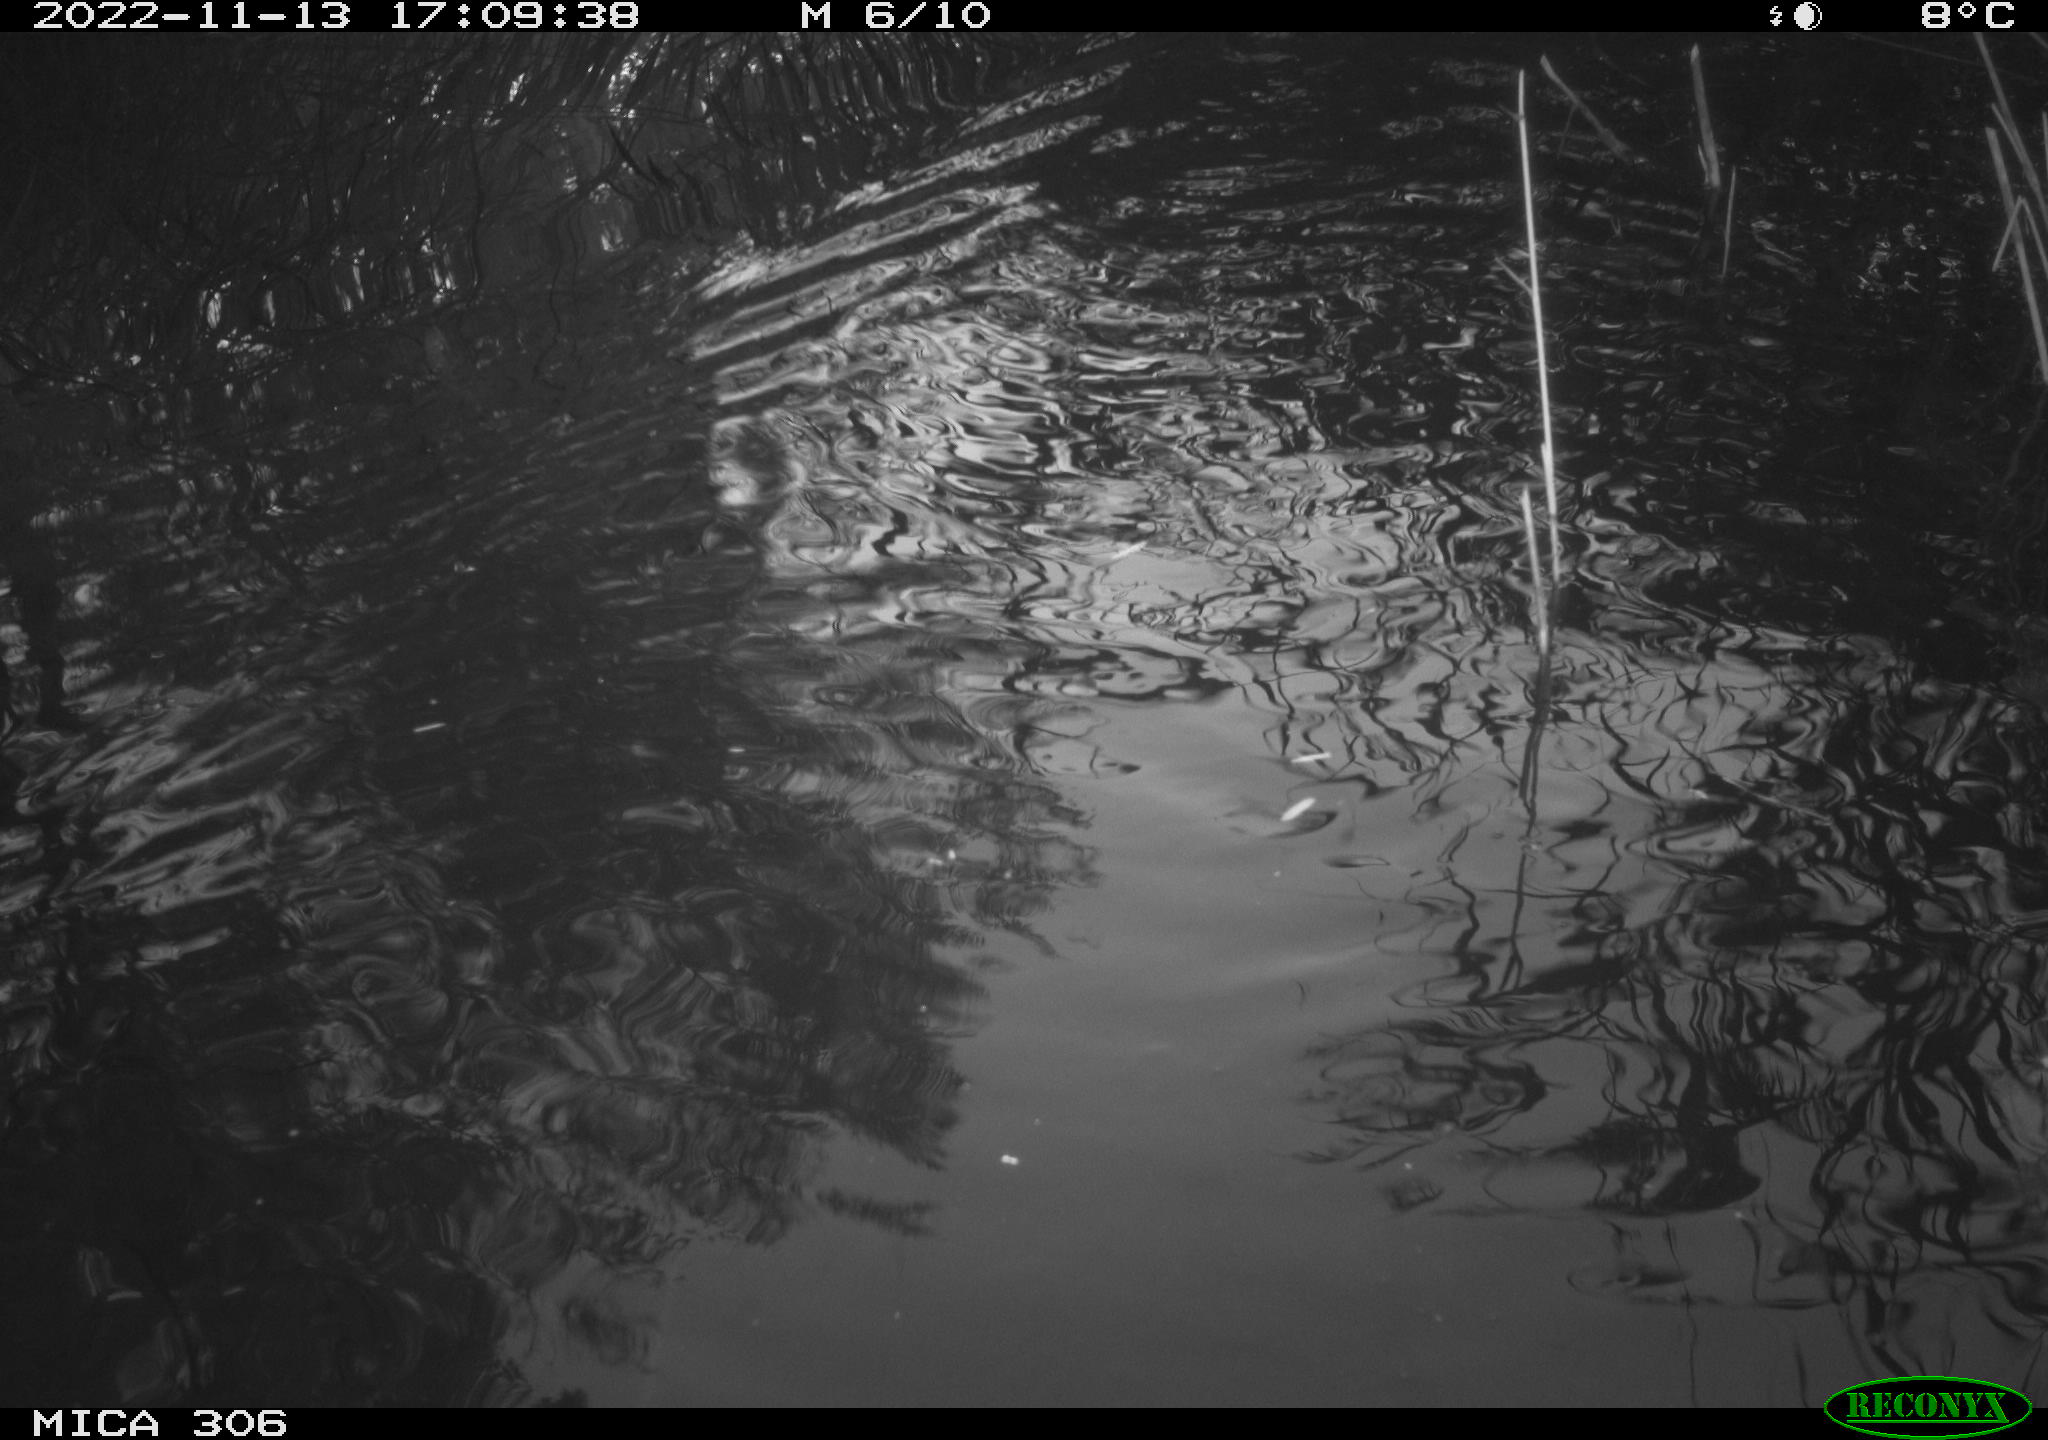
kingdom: Animalia
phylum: Chordata
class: Mammalia
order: Rodentia
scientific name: Rodentia
